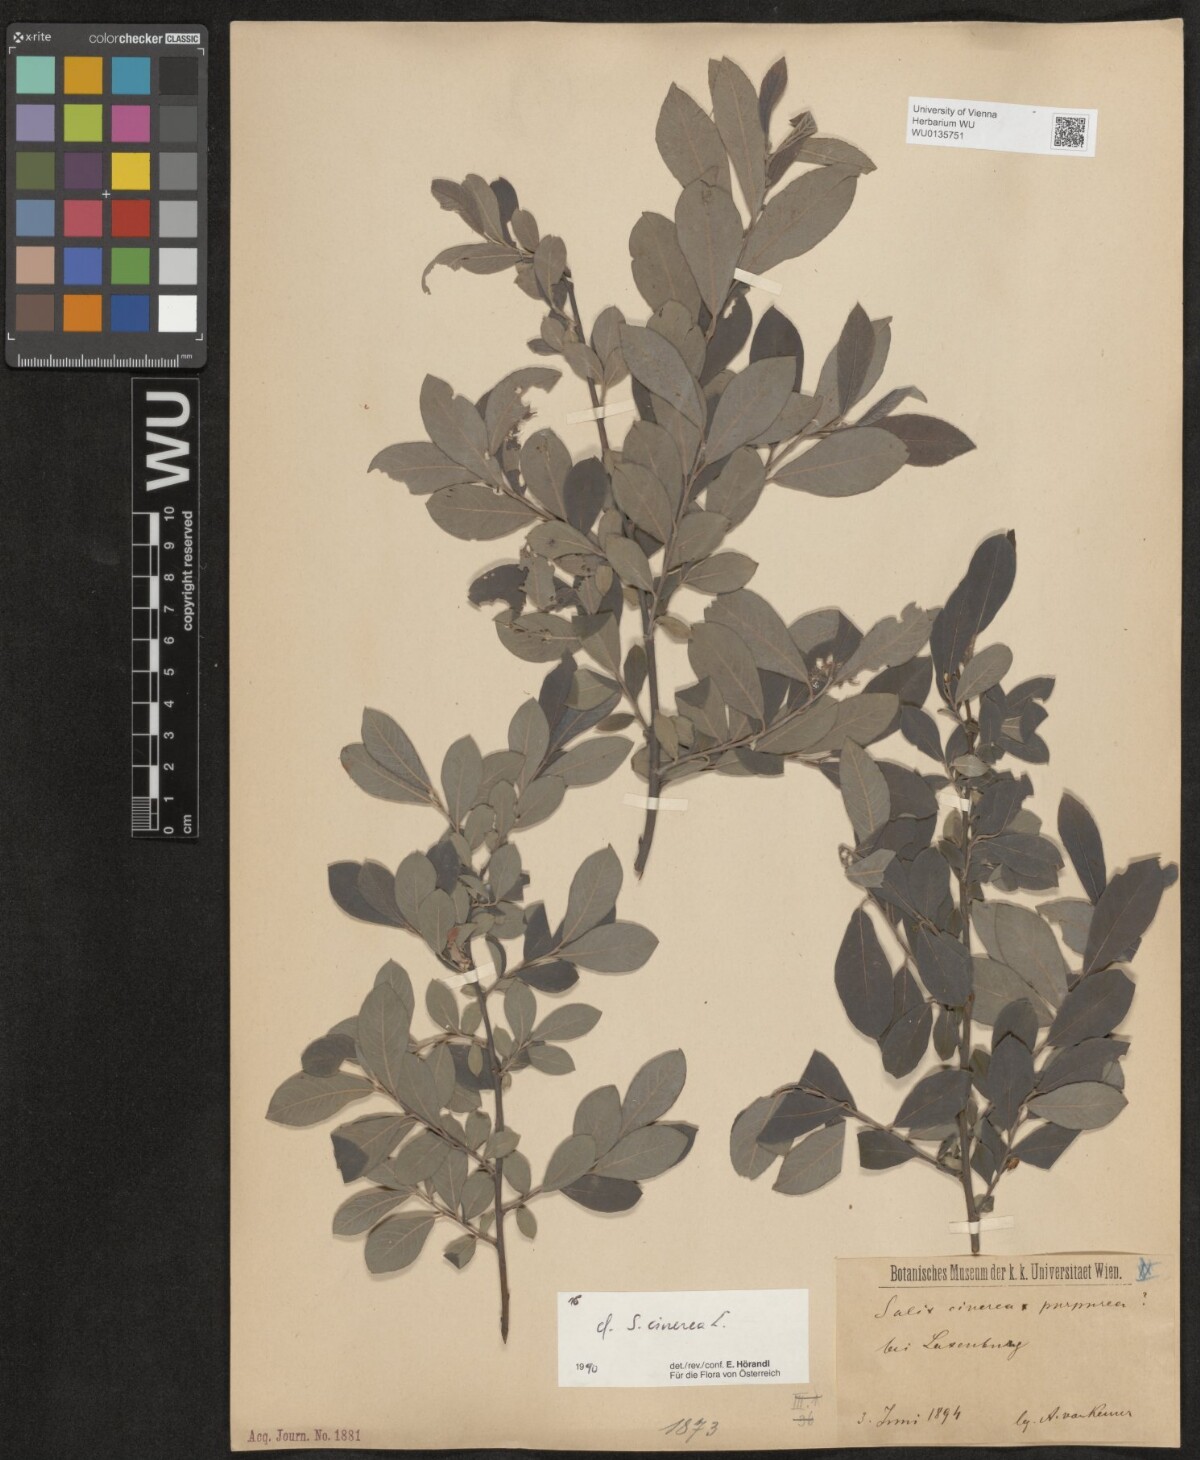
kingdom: Plantae
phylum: Tracheophyta
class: Magnoliopsida
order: Malpighiales
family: Salicaceae
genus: Salix
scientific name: Salix cinerea
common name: Common sallow
